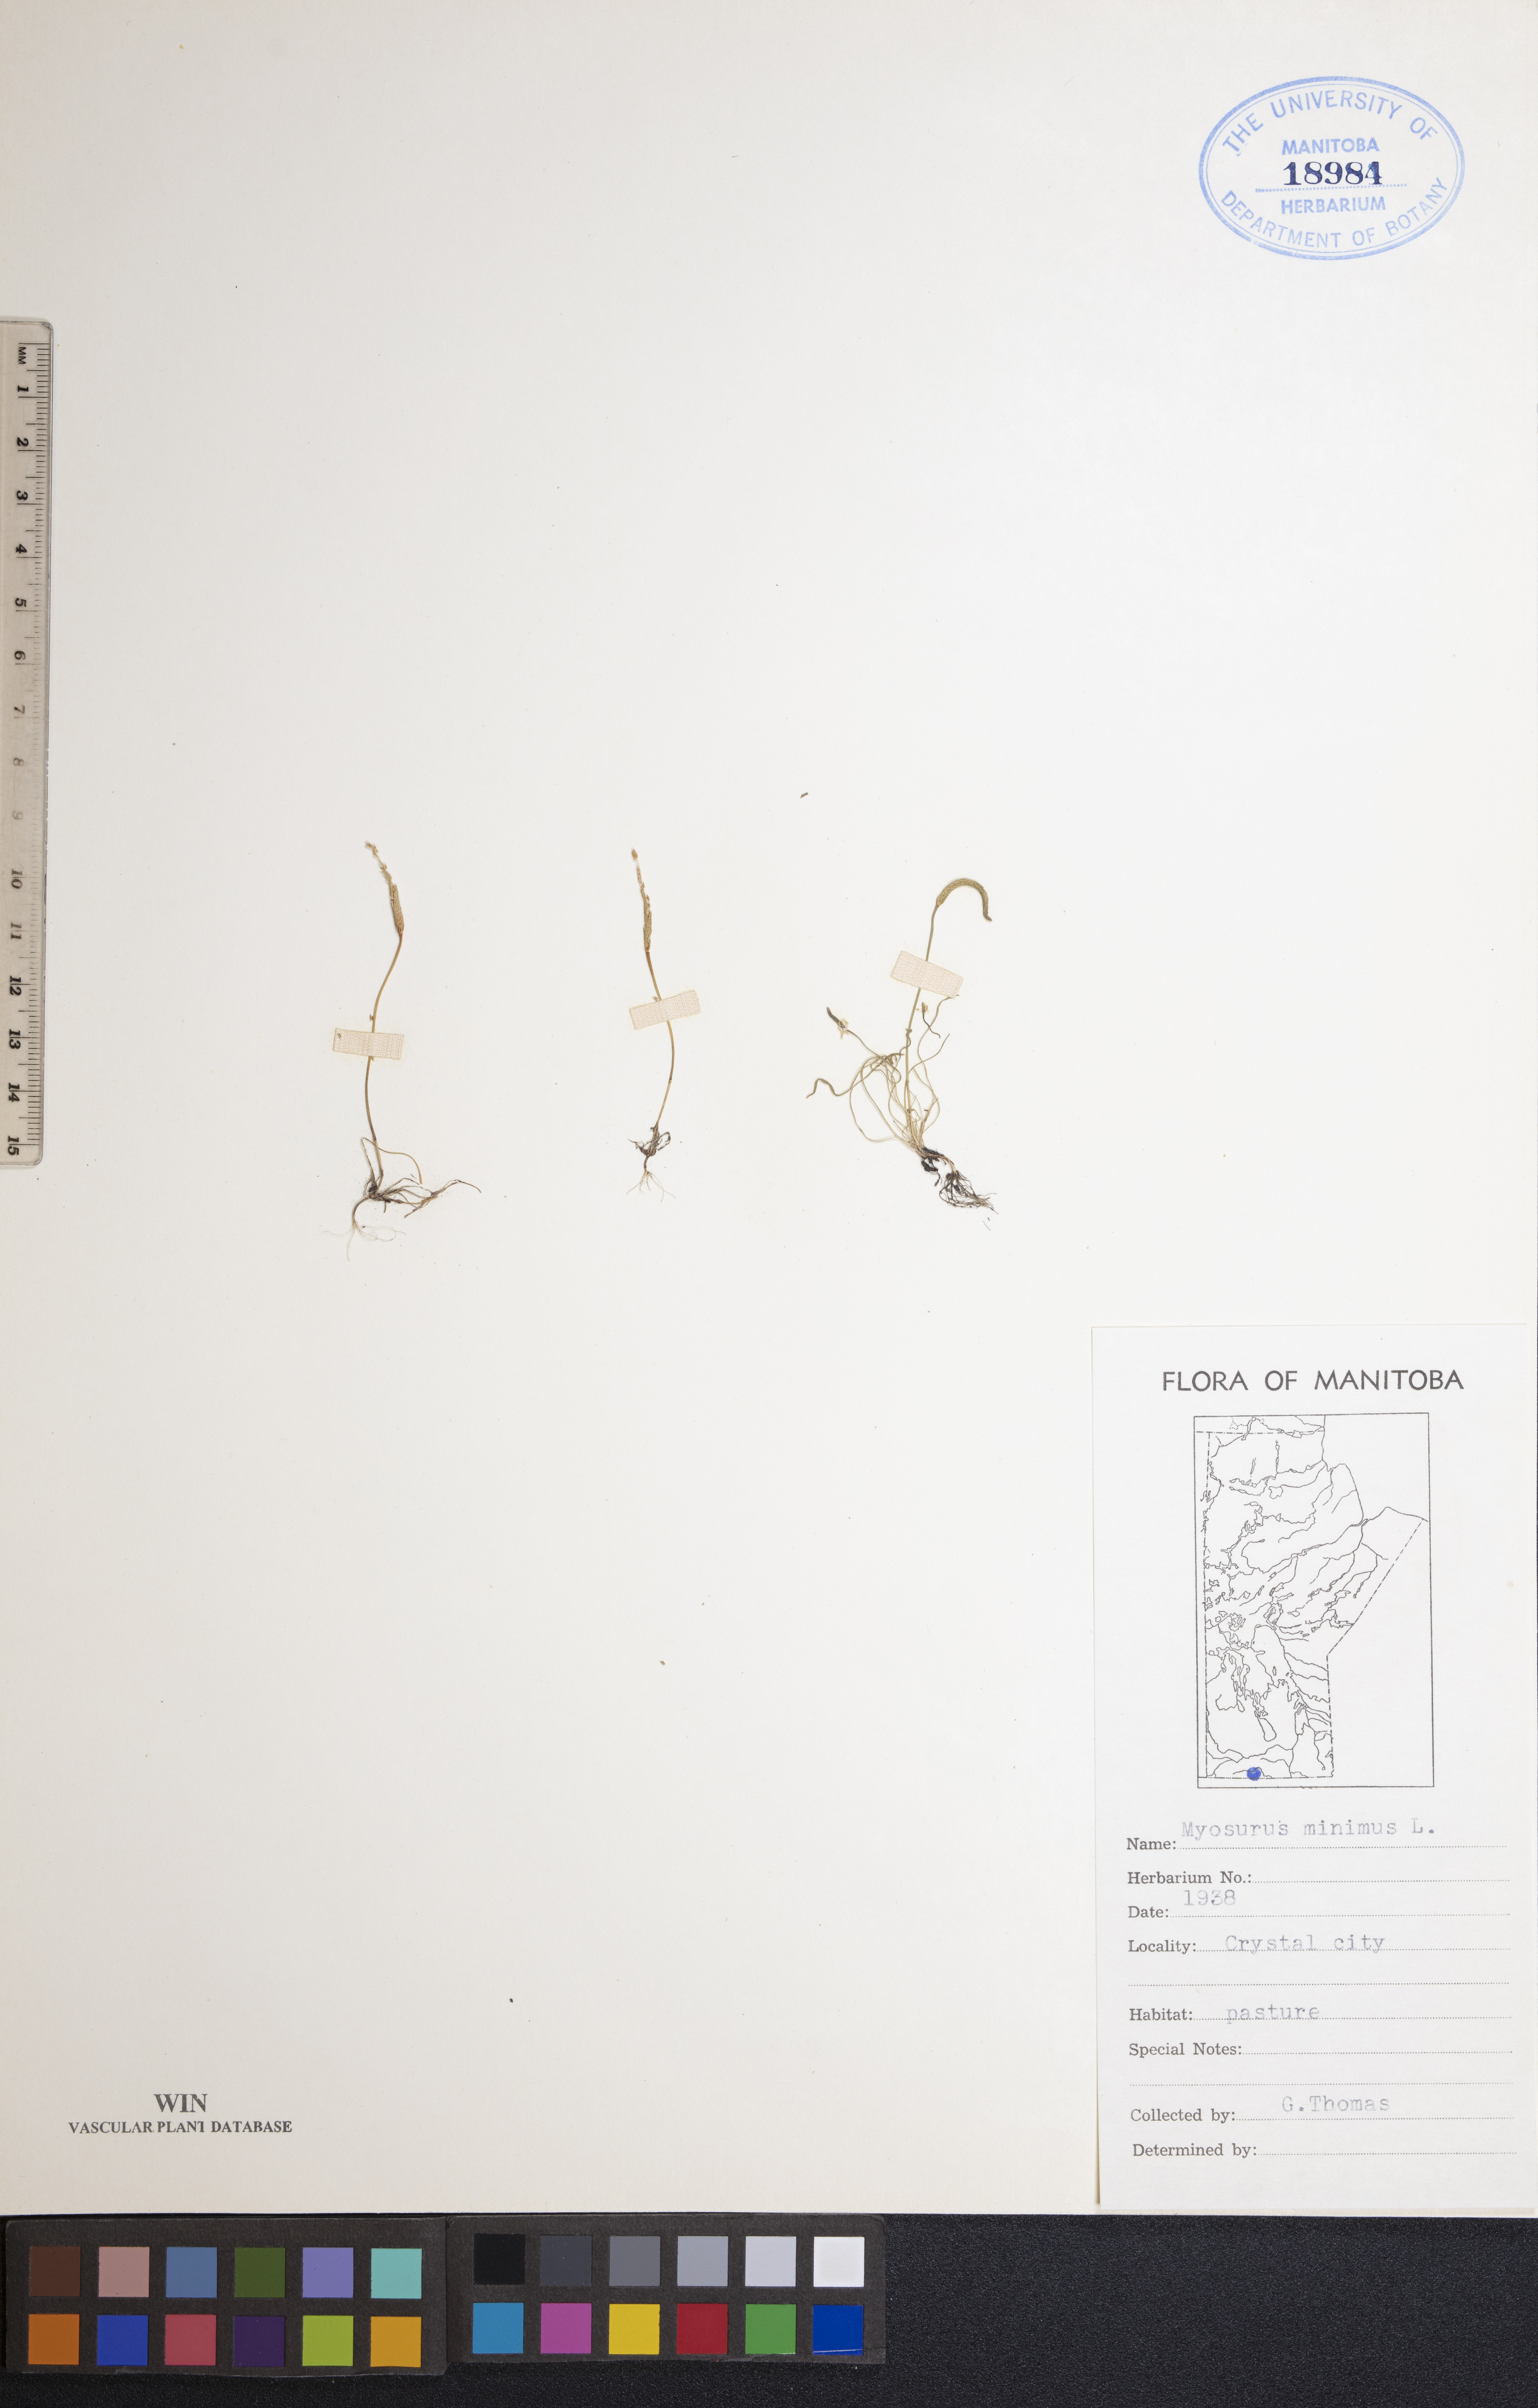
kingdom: Plantae
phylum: Tracheophyta
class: Magnoliopsida
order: Ranunculales
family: Ranunculaceae
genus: Myosurus
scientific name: Myosurus minimus
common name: Mousetail
